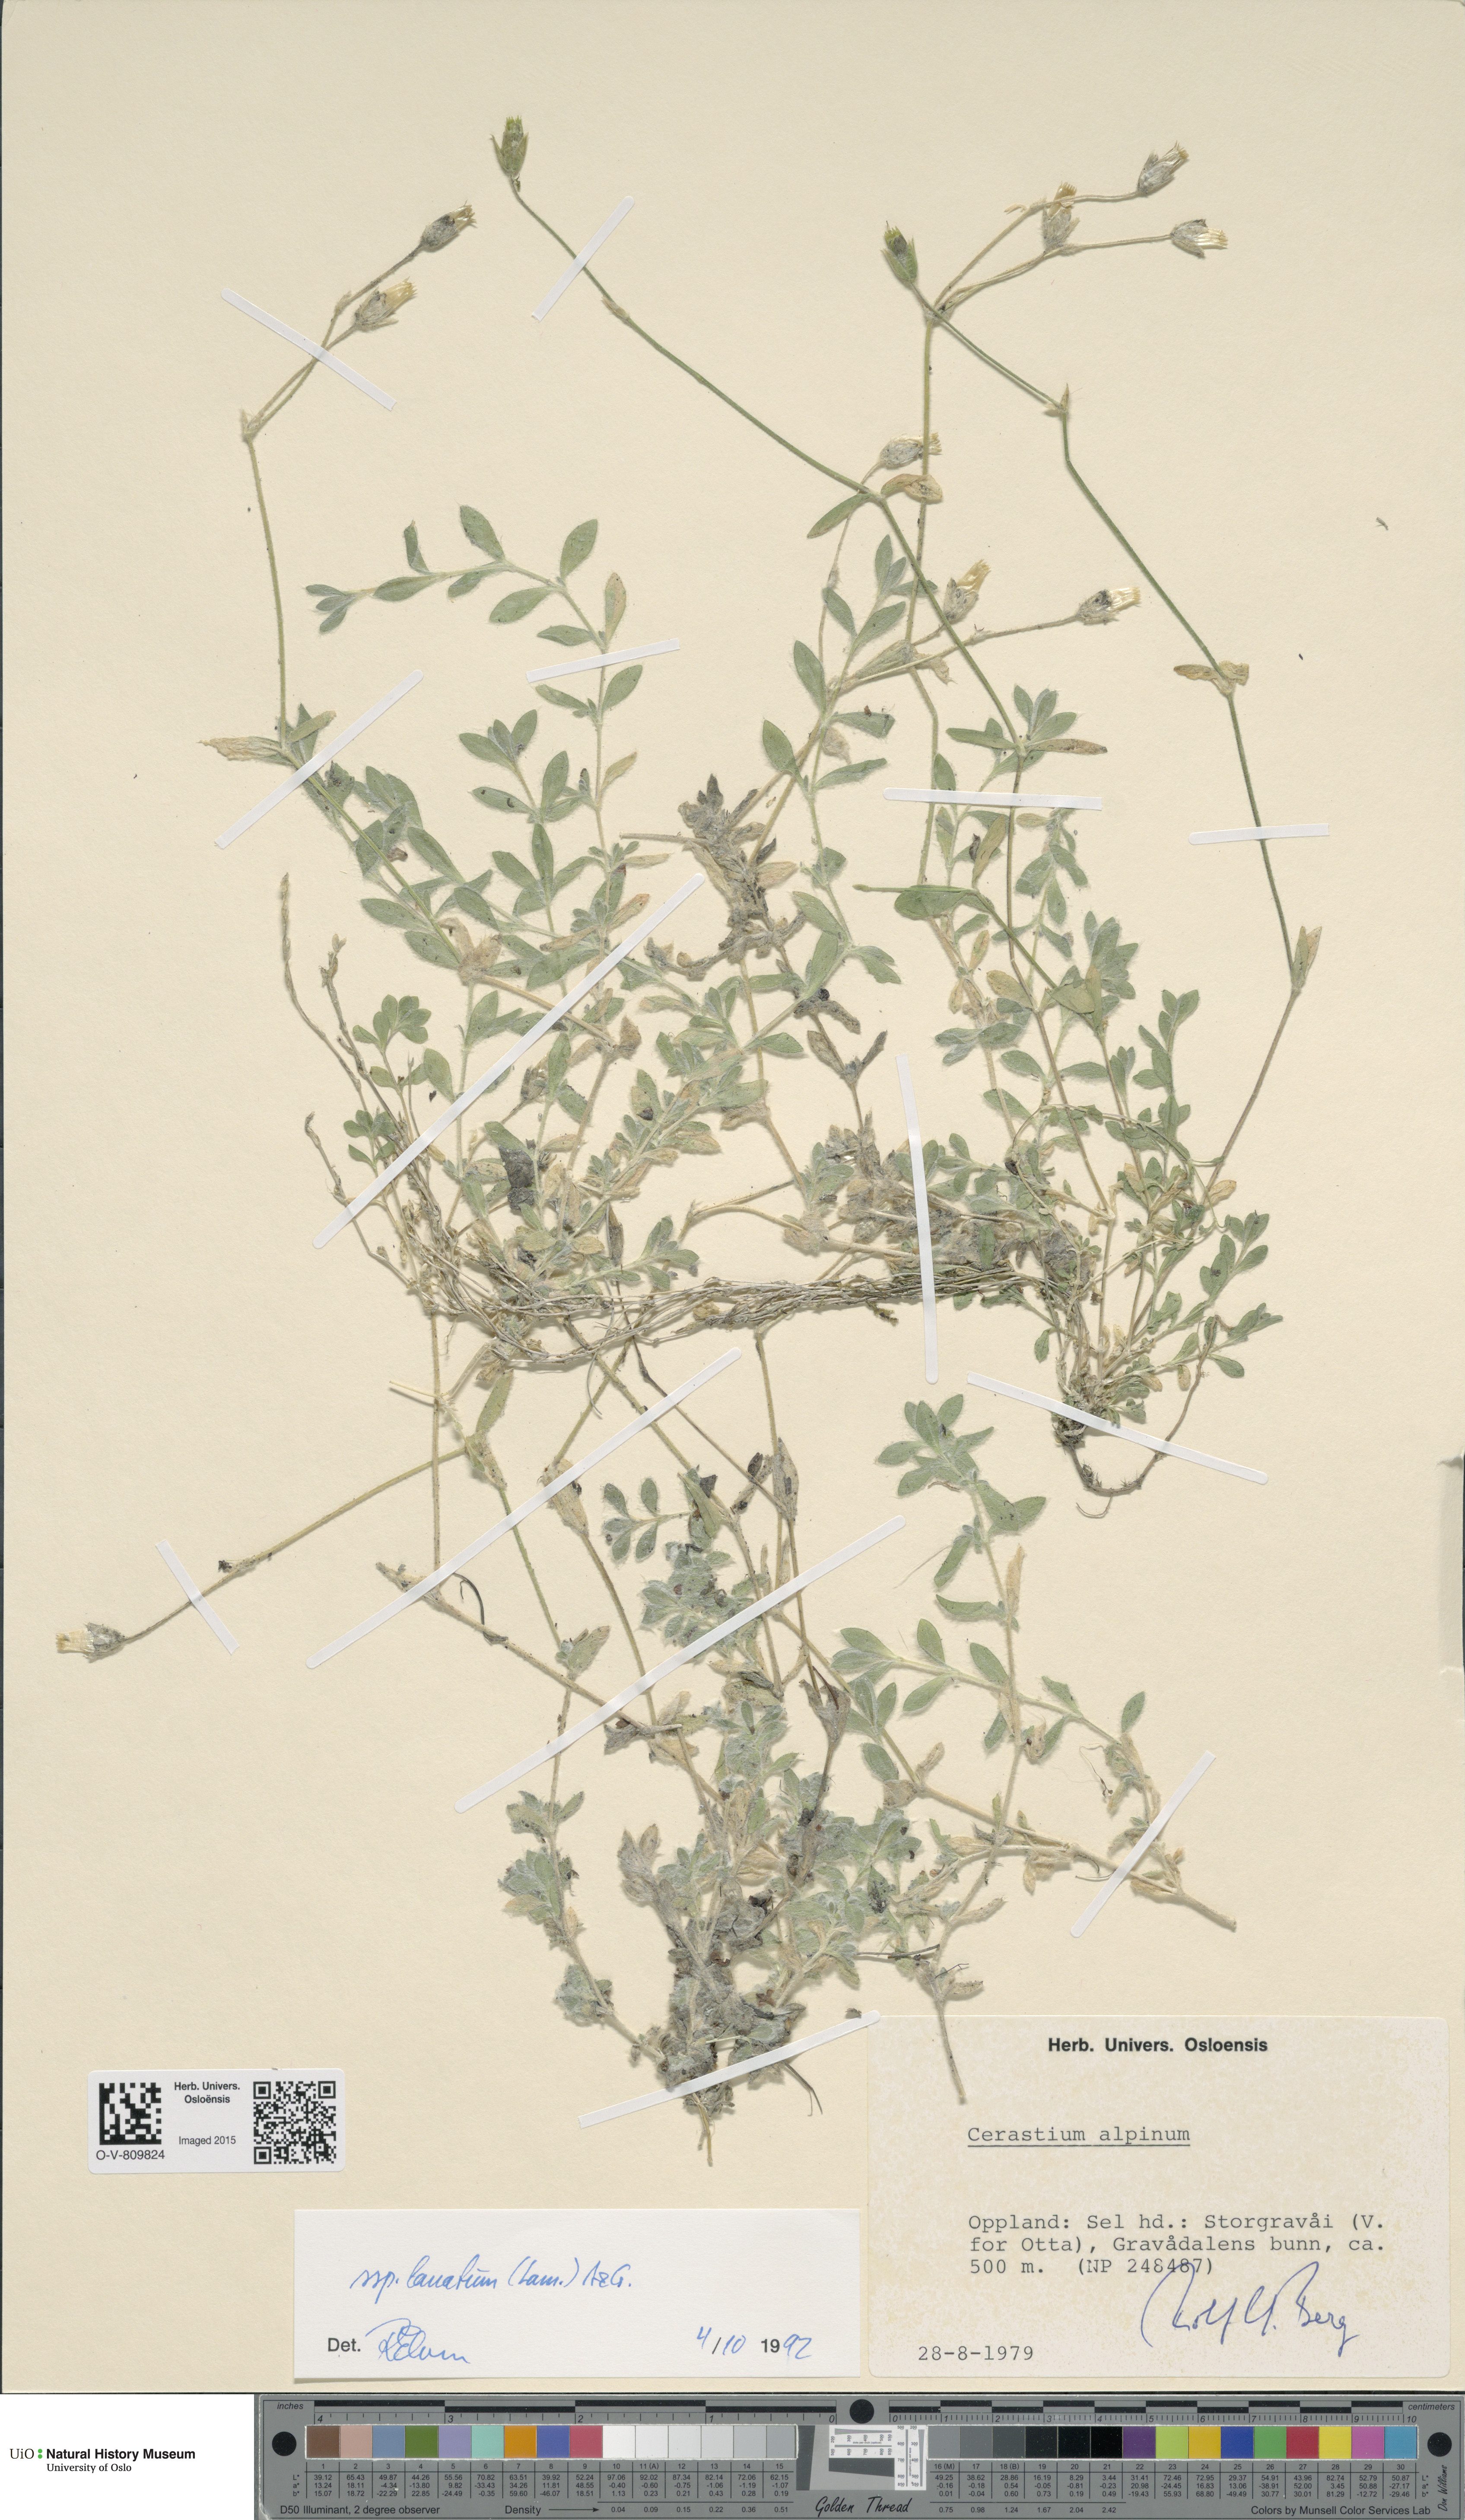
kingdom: Plantae
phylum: Tracheophyta
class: Magnoliopsida
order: Caryophyllales
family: Caryophyllaceae
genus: Cerastium
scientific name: Cerastium alpinum
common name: Alpine mouse-ear
